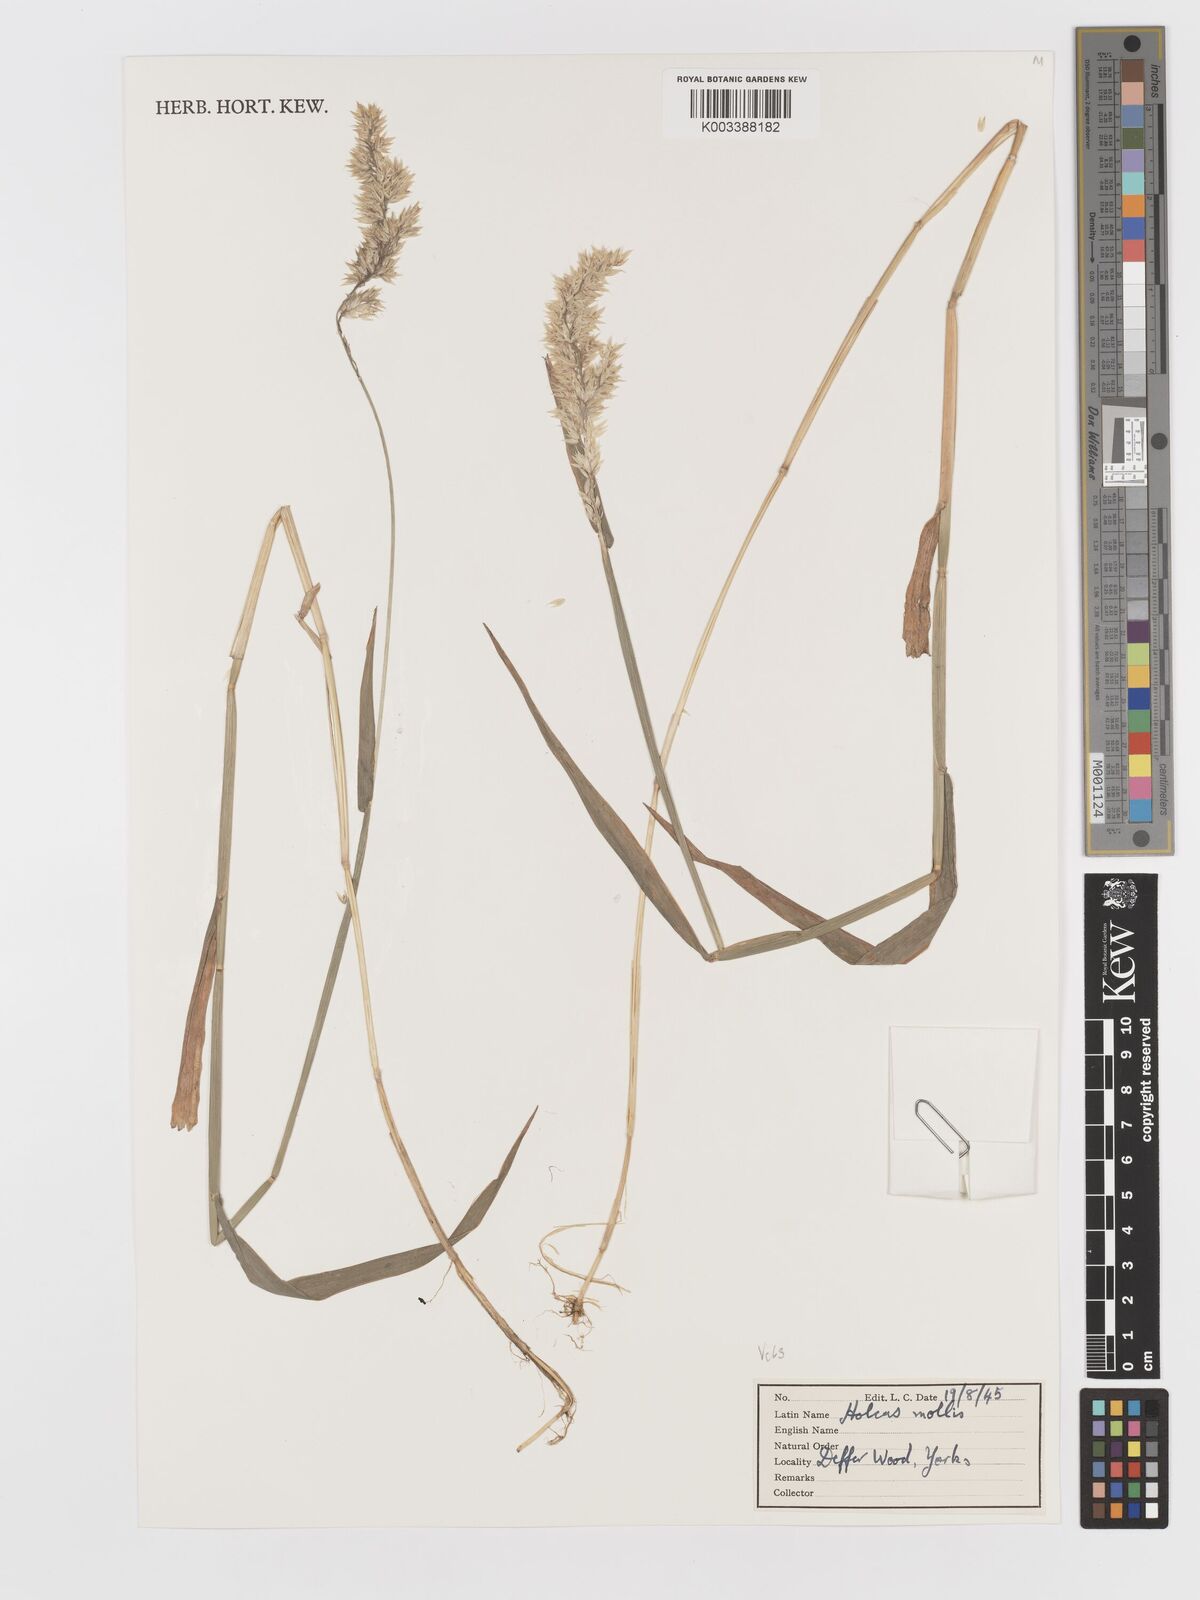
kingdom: Plantae
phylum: Tracheophyta
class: Liliopsida
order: Poales
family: Poaceae
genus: Holcus
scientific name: Holcus mollis
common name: Creeping velvetgrass
